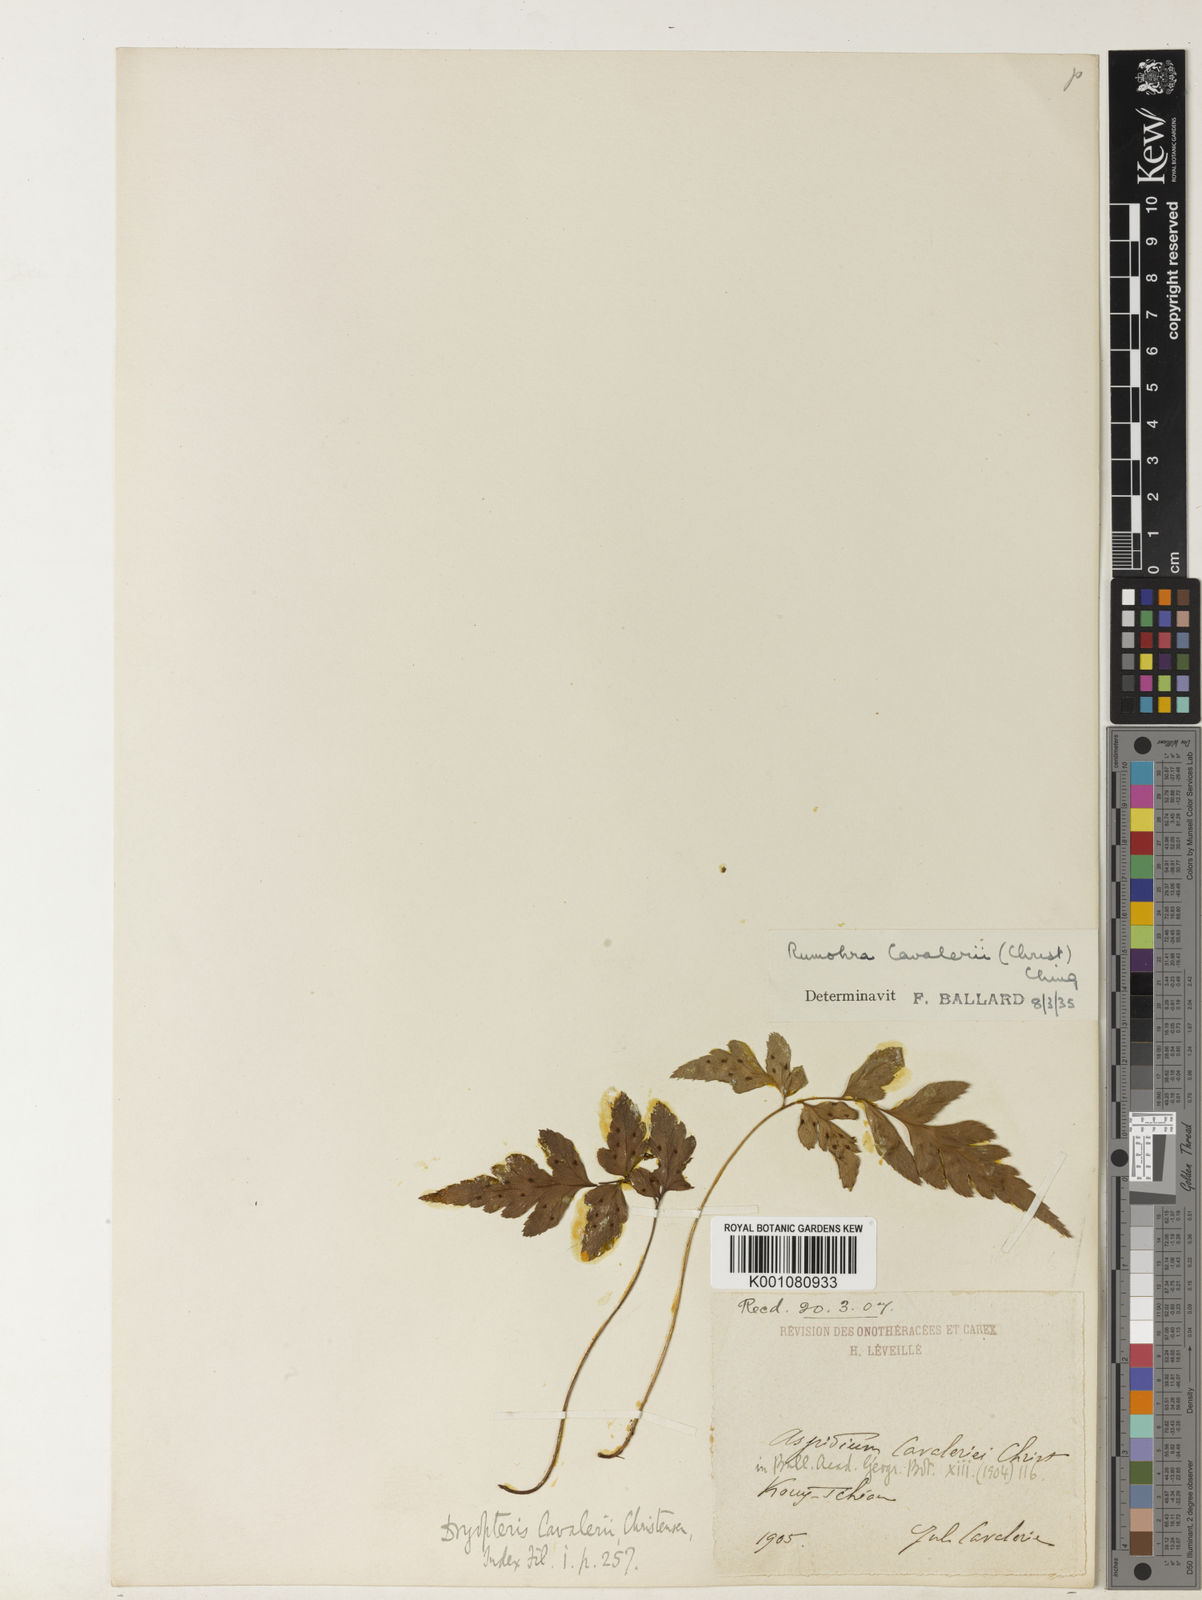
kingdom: Plantae
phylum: Tracheophyta
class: Polypodiopsida
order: Polypodiales
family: Dryopteridaceae
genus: Arachniodes
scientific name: Arachniodes cavaleriei
